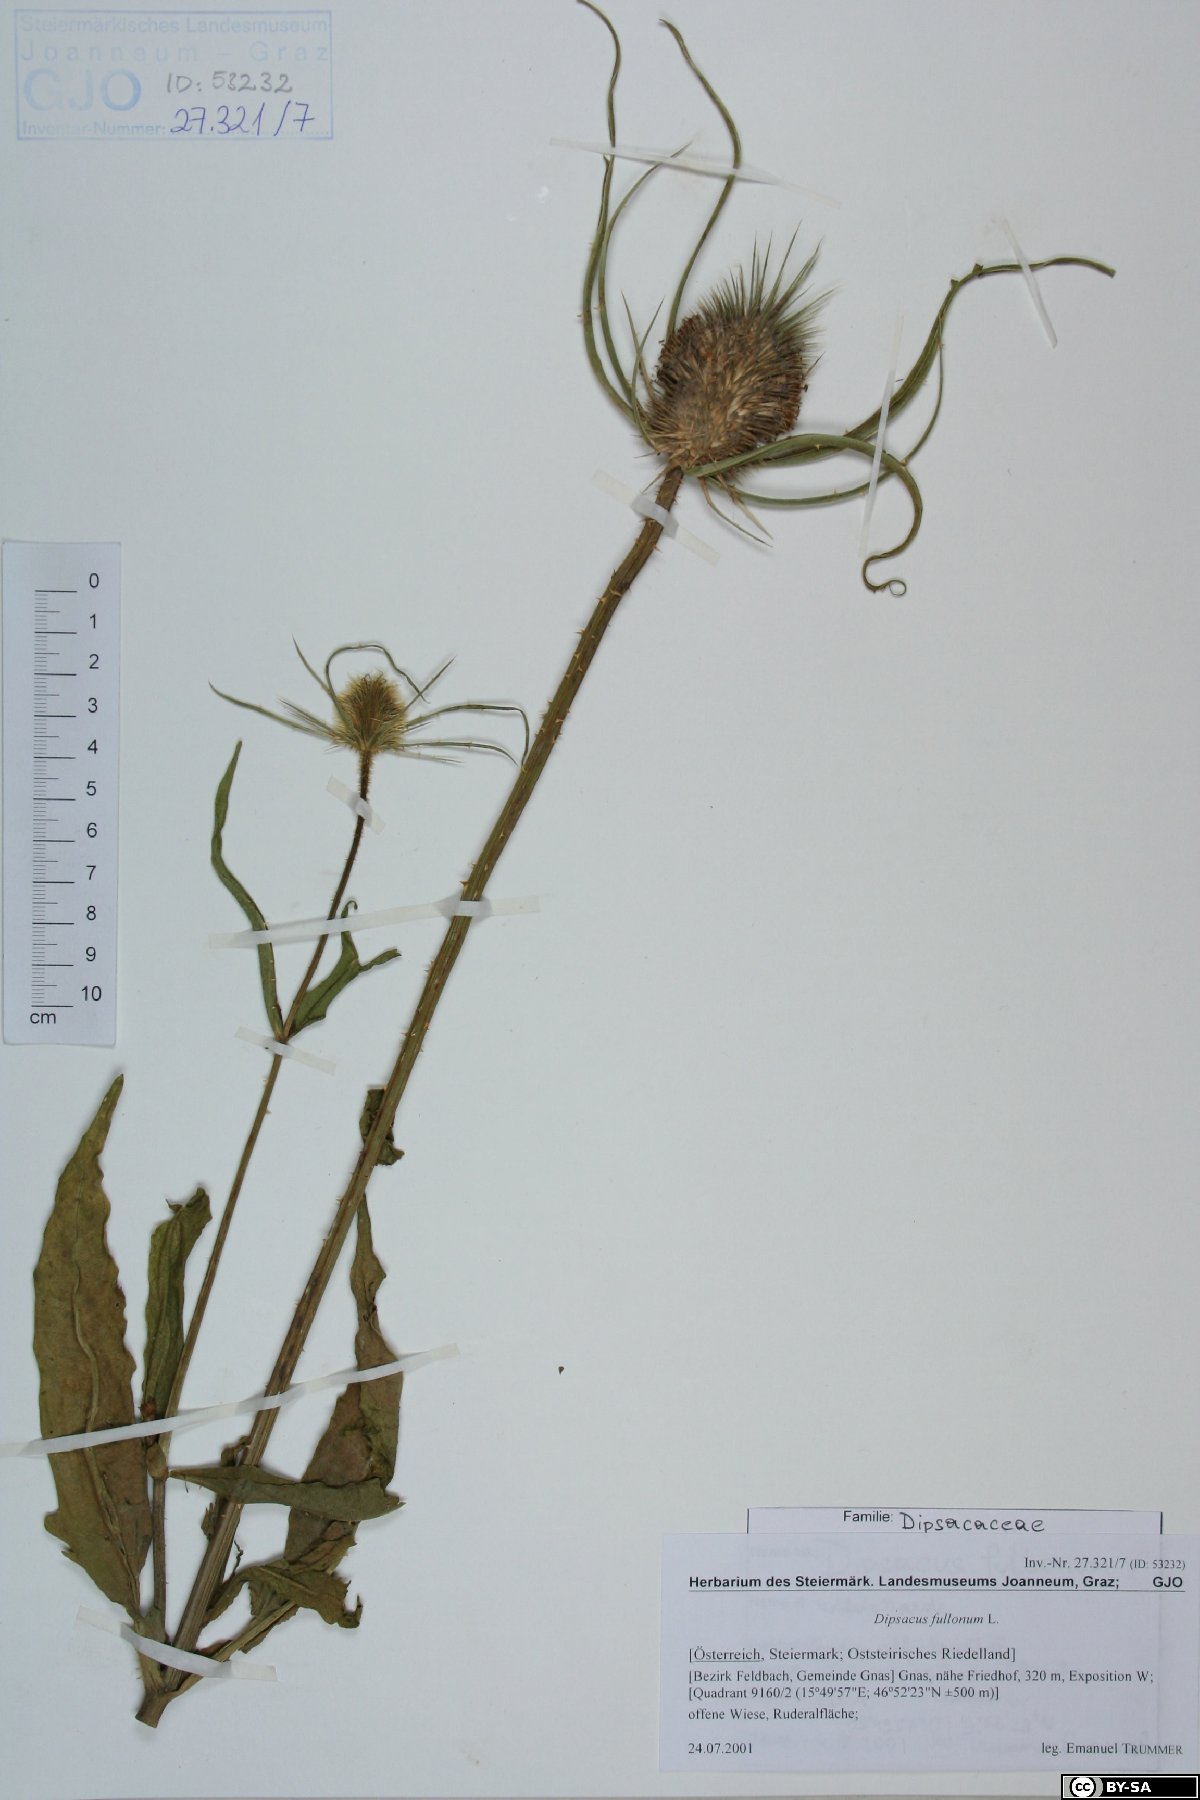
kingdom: Plantae
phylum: Tracheophyta
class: Magnoliopsida
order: Dipsacales
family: Caprifoliaceae
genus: Dipsacus
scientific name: Dipsacus fullonum
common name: Teasel
